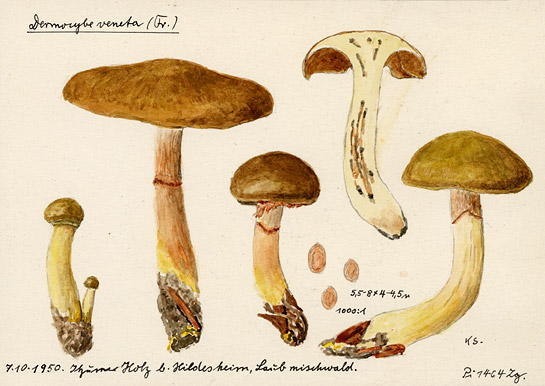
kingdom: Fungi
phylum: Basidiomycota
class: Agaricomycetes
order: Agaricales
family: Cortinariaceae
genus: Cortinarius
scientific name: Cortinarius venetus
